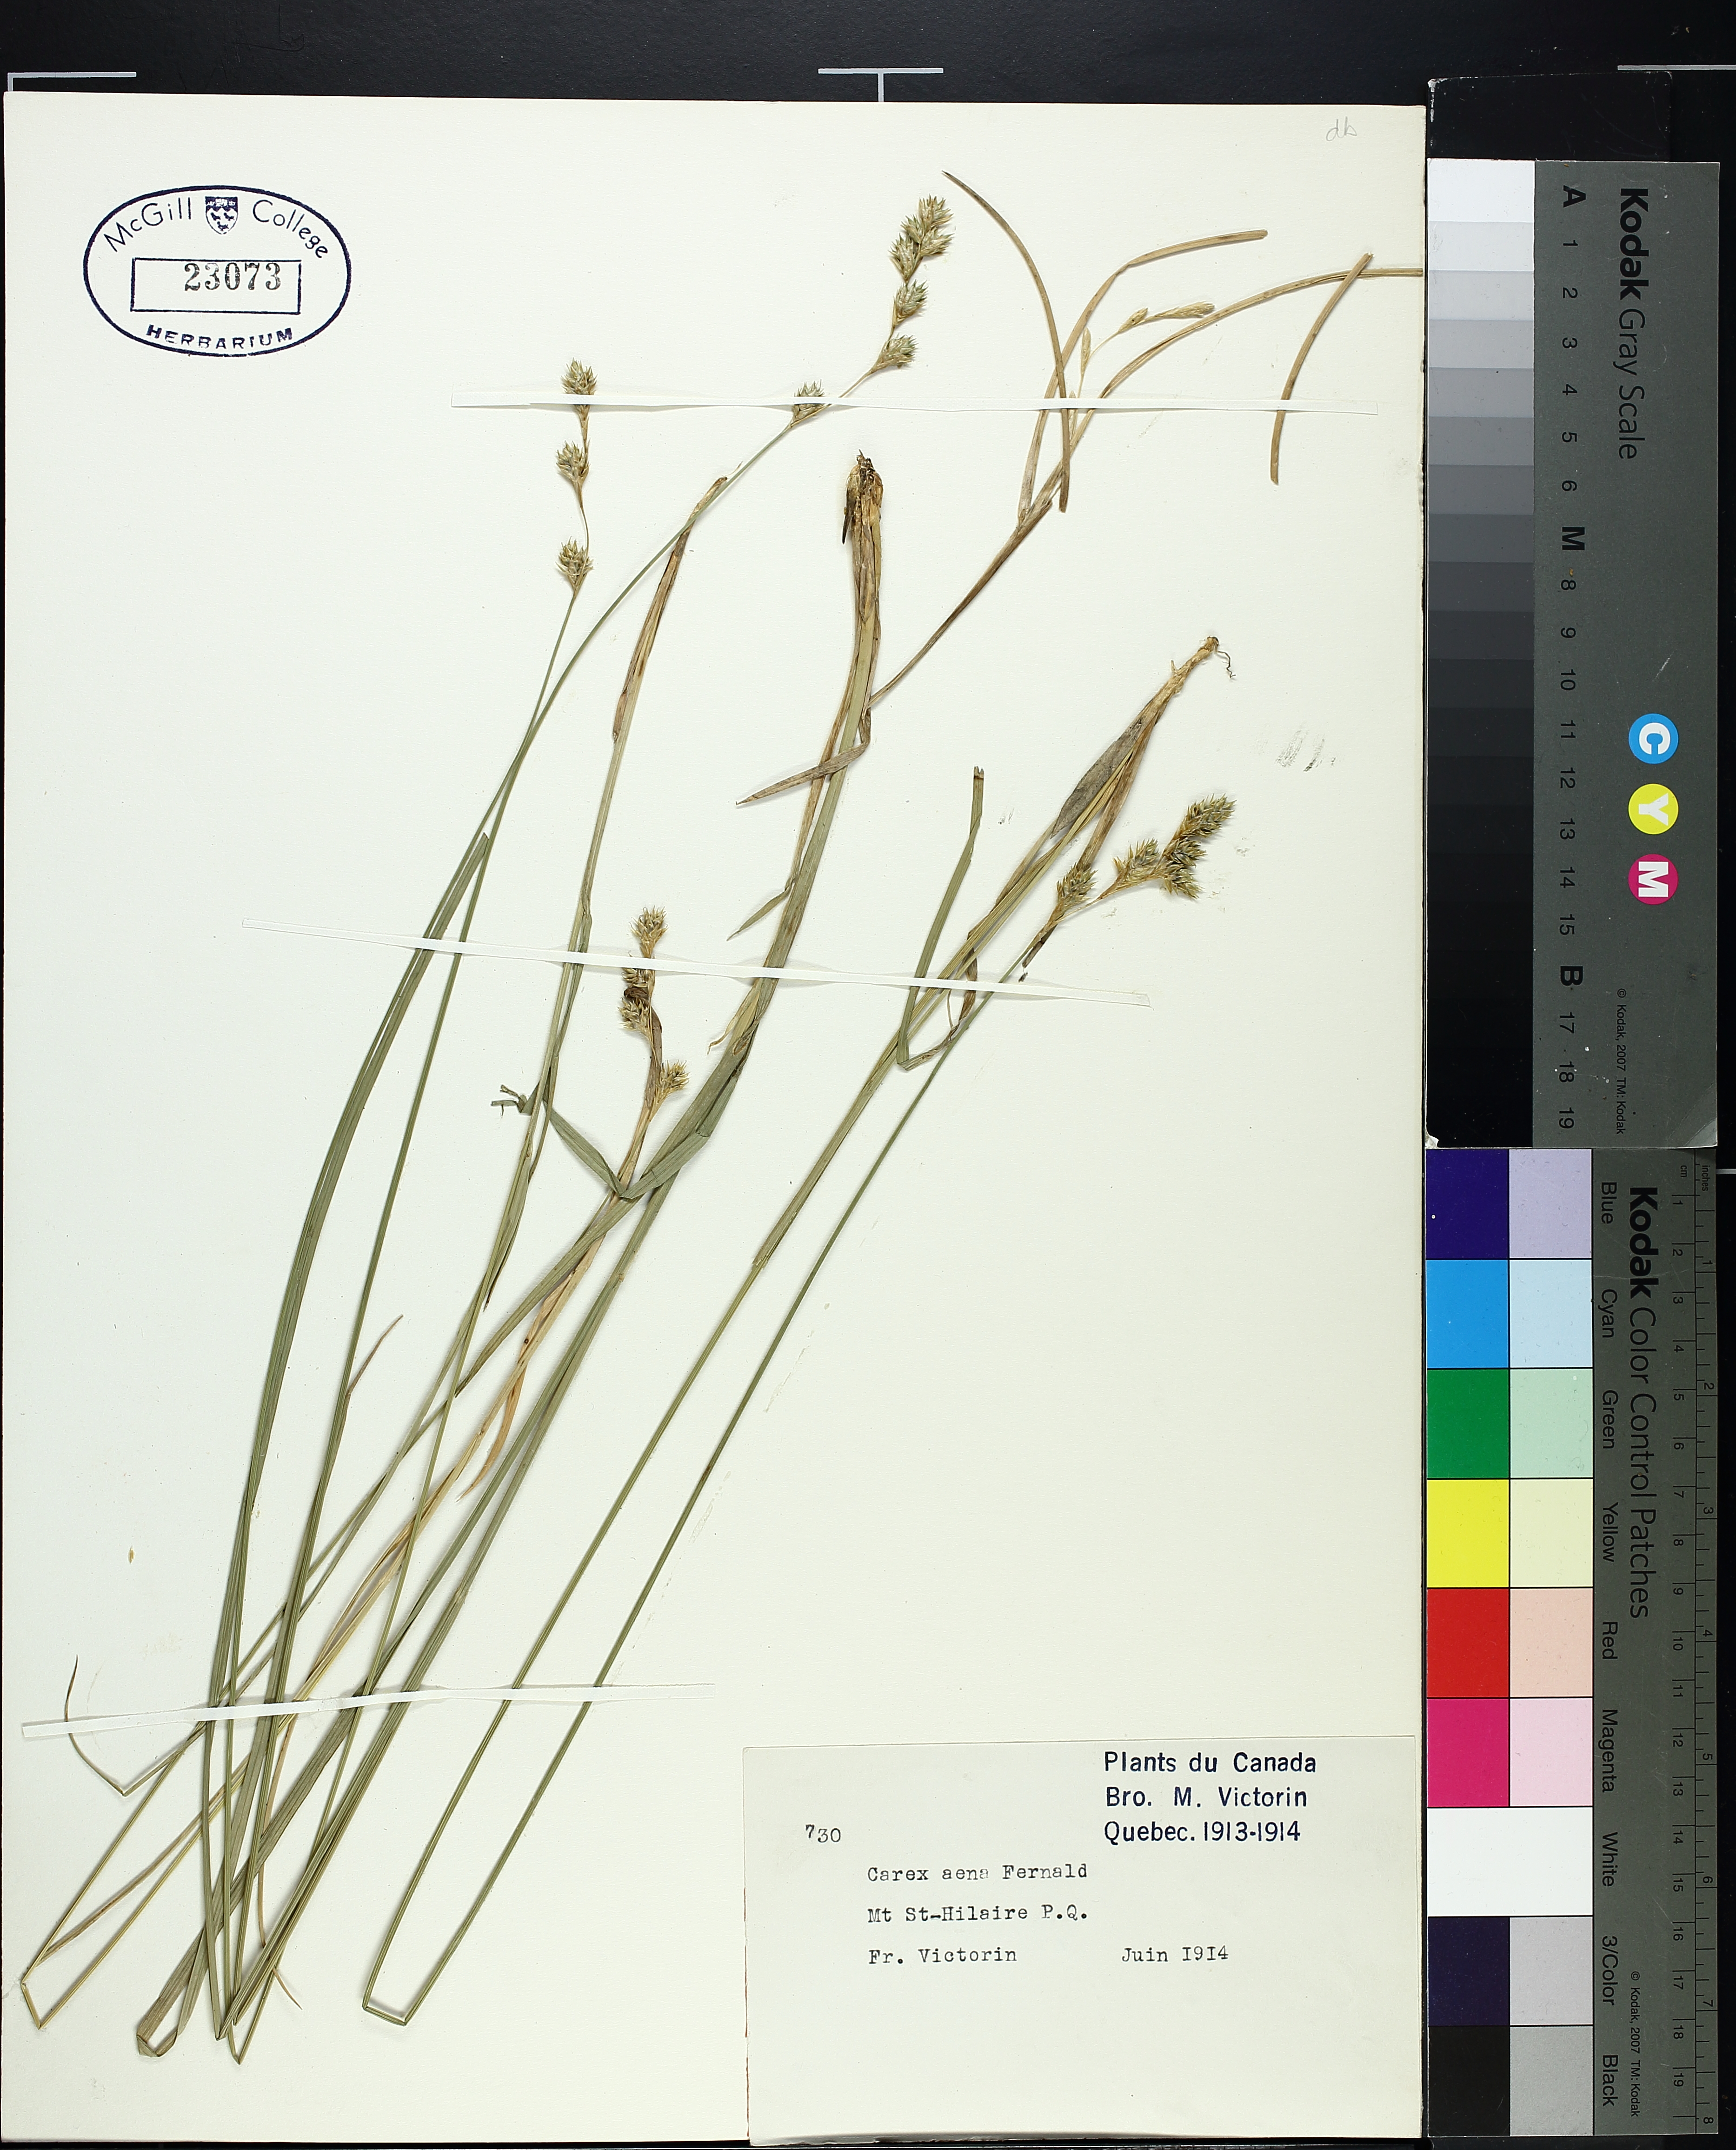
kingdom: Plantae
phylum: Tracheophyta
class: Liliopsida
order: Poales
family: Cyperaceae
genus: Carex
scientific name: Carex foenea
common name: Bronze sedge
